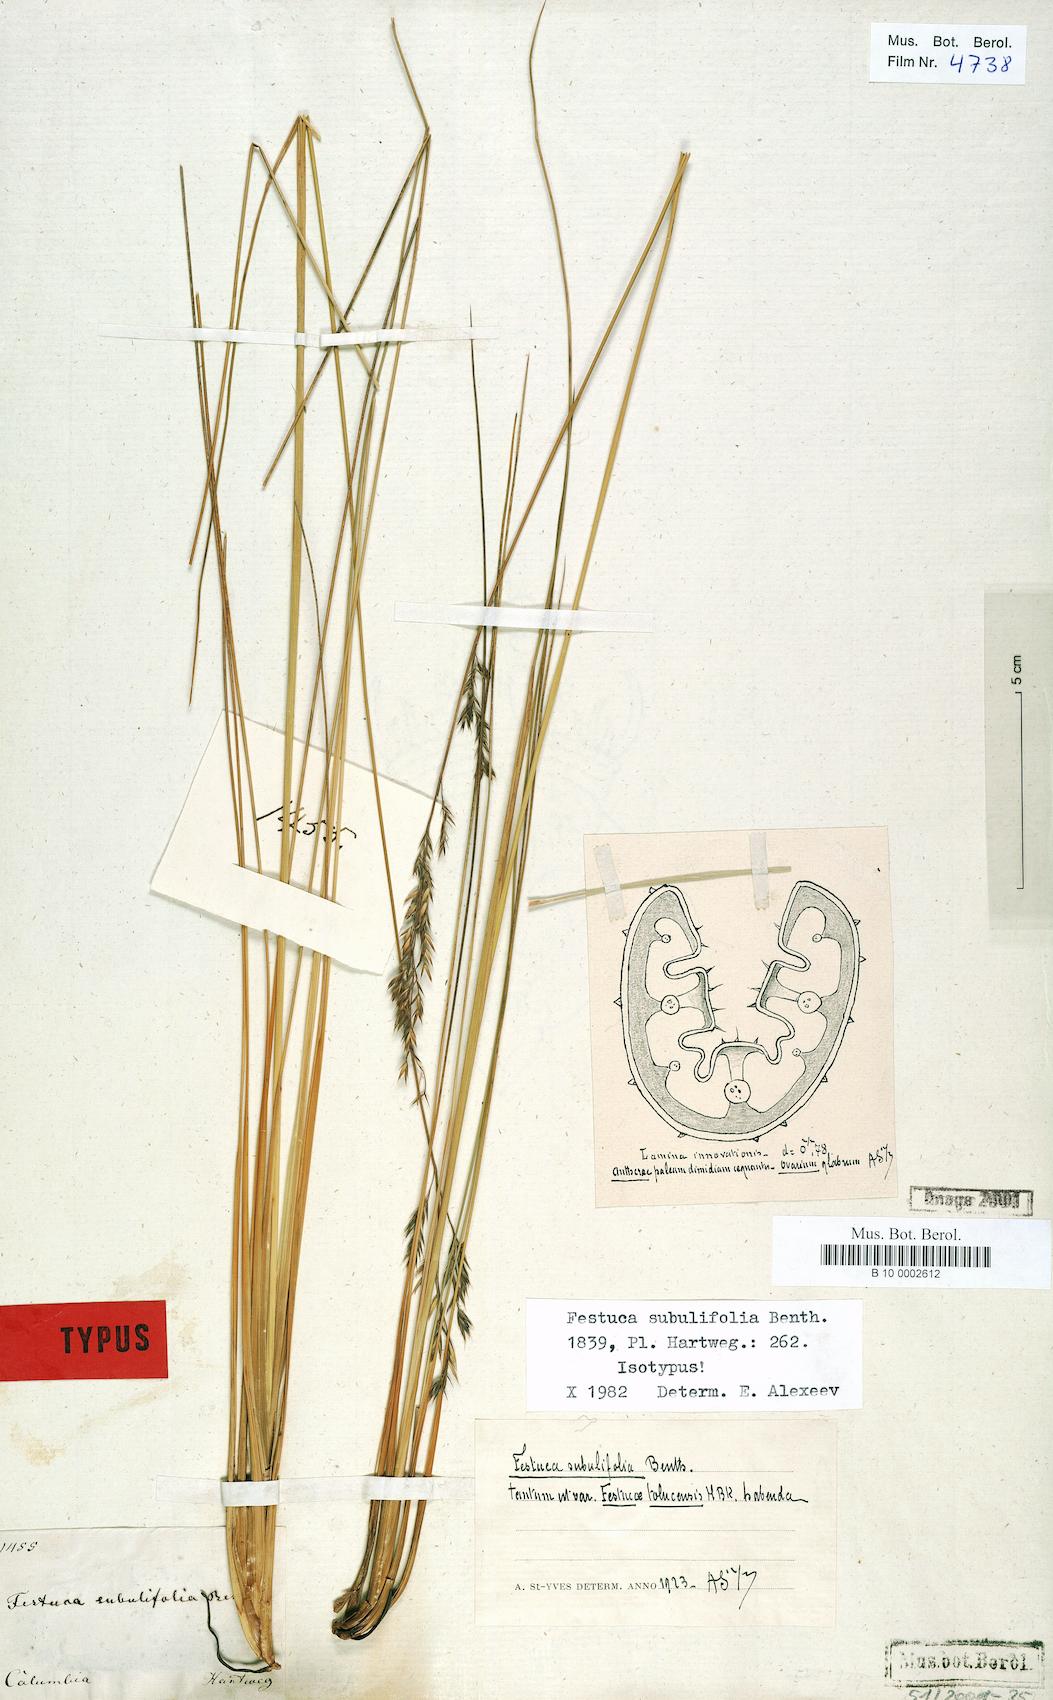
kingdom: Plantae
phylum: Tracheophyta
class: Liliopsida
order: Poales
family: Poaceae
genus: Festuca
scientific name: Festuca subulifolia
